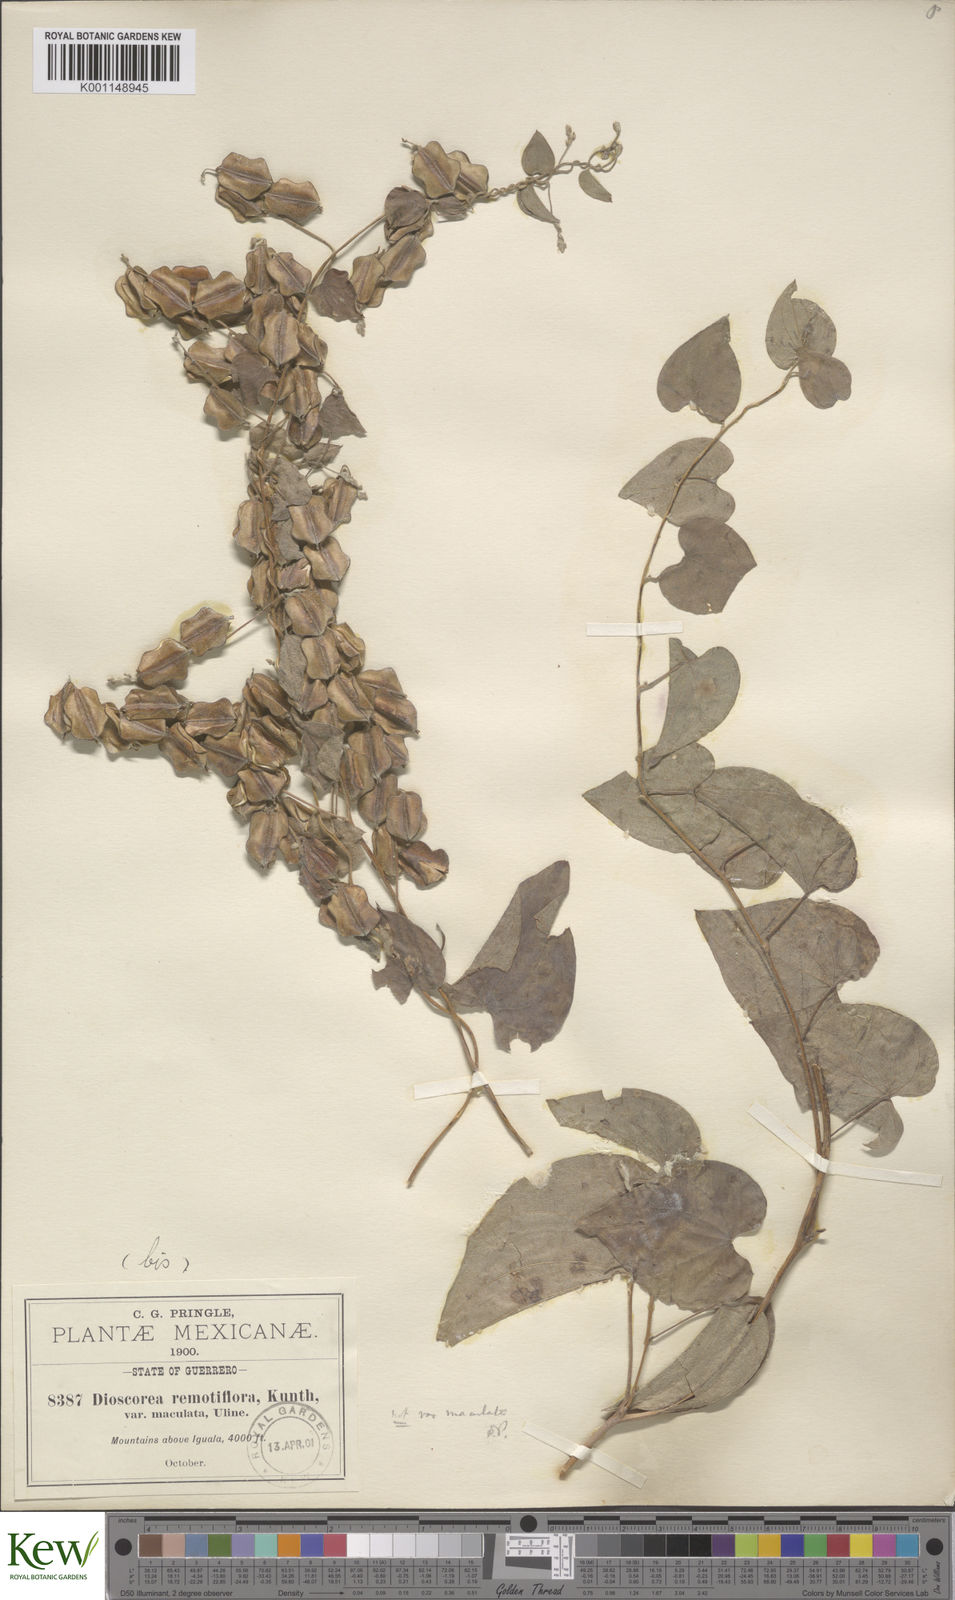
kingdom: Plantae
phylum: Tracheophyta
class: Liliopsida
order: Dioscoreales
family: Dioscoreaceae
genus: Dioscorea
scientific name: Dioscorea remotiflora
